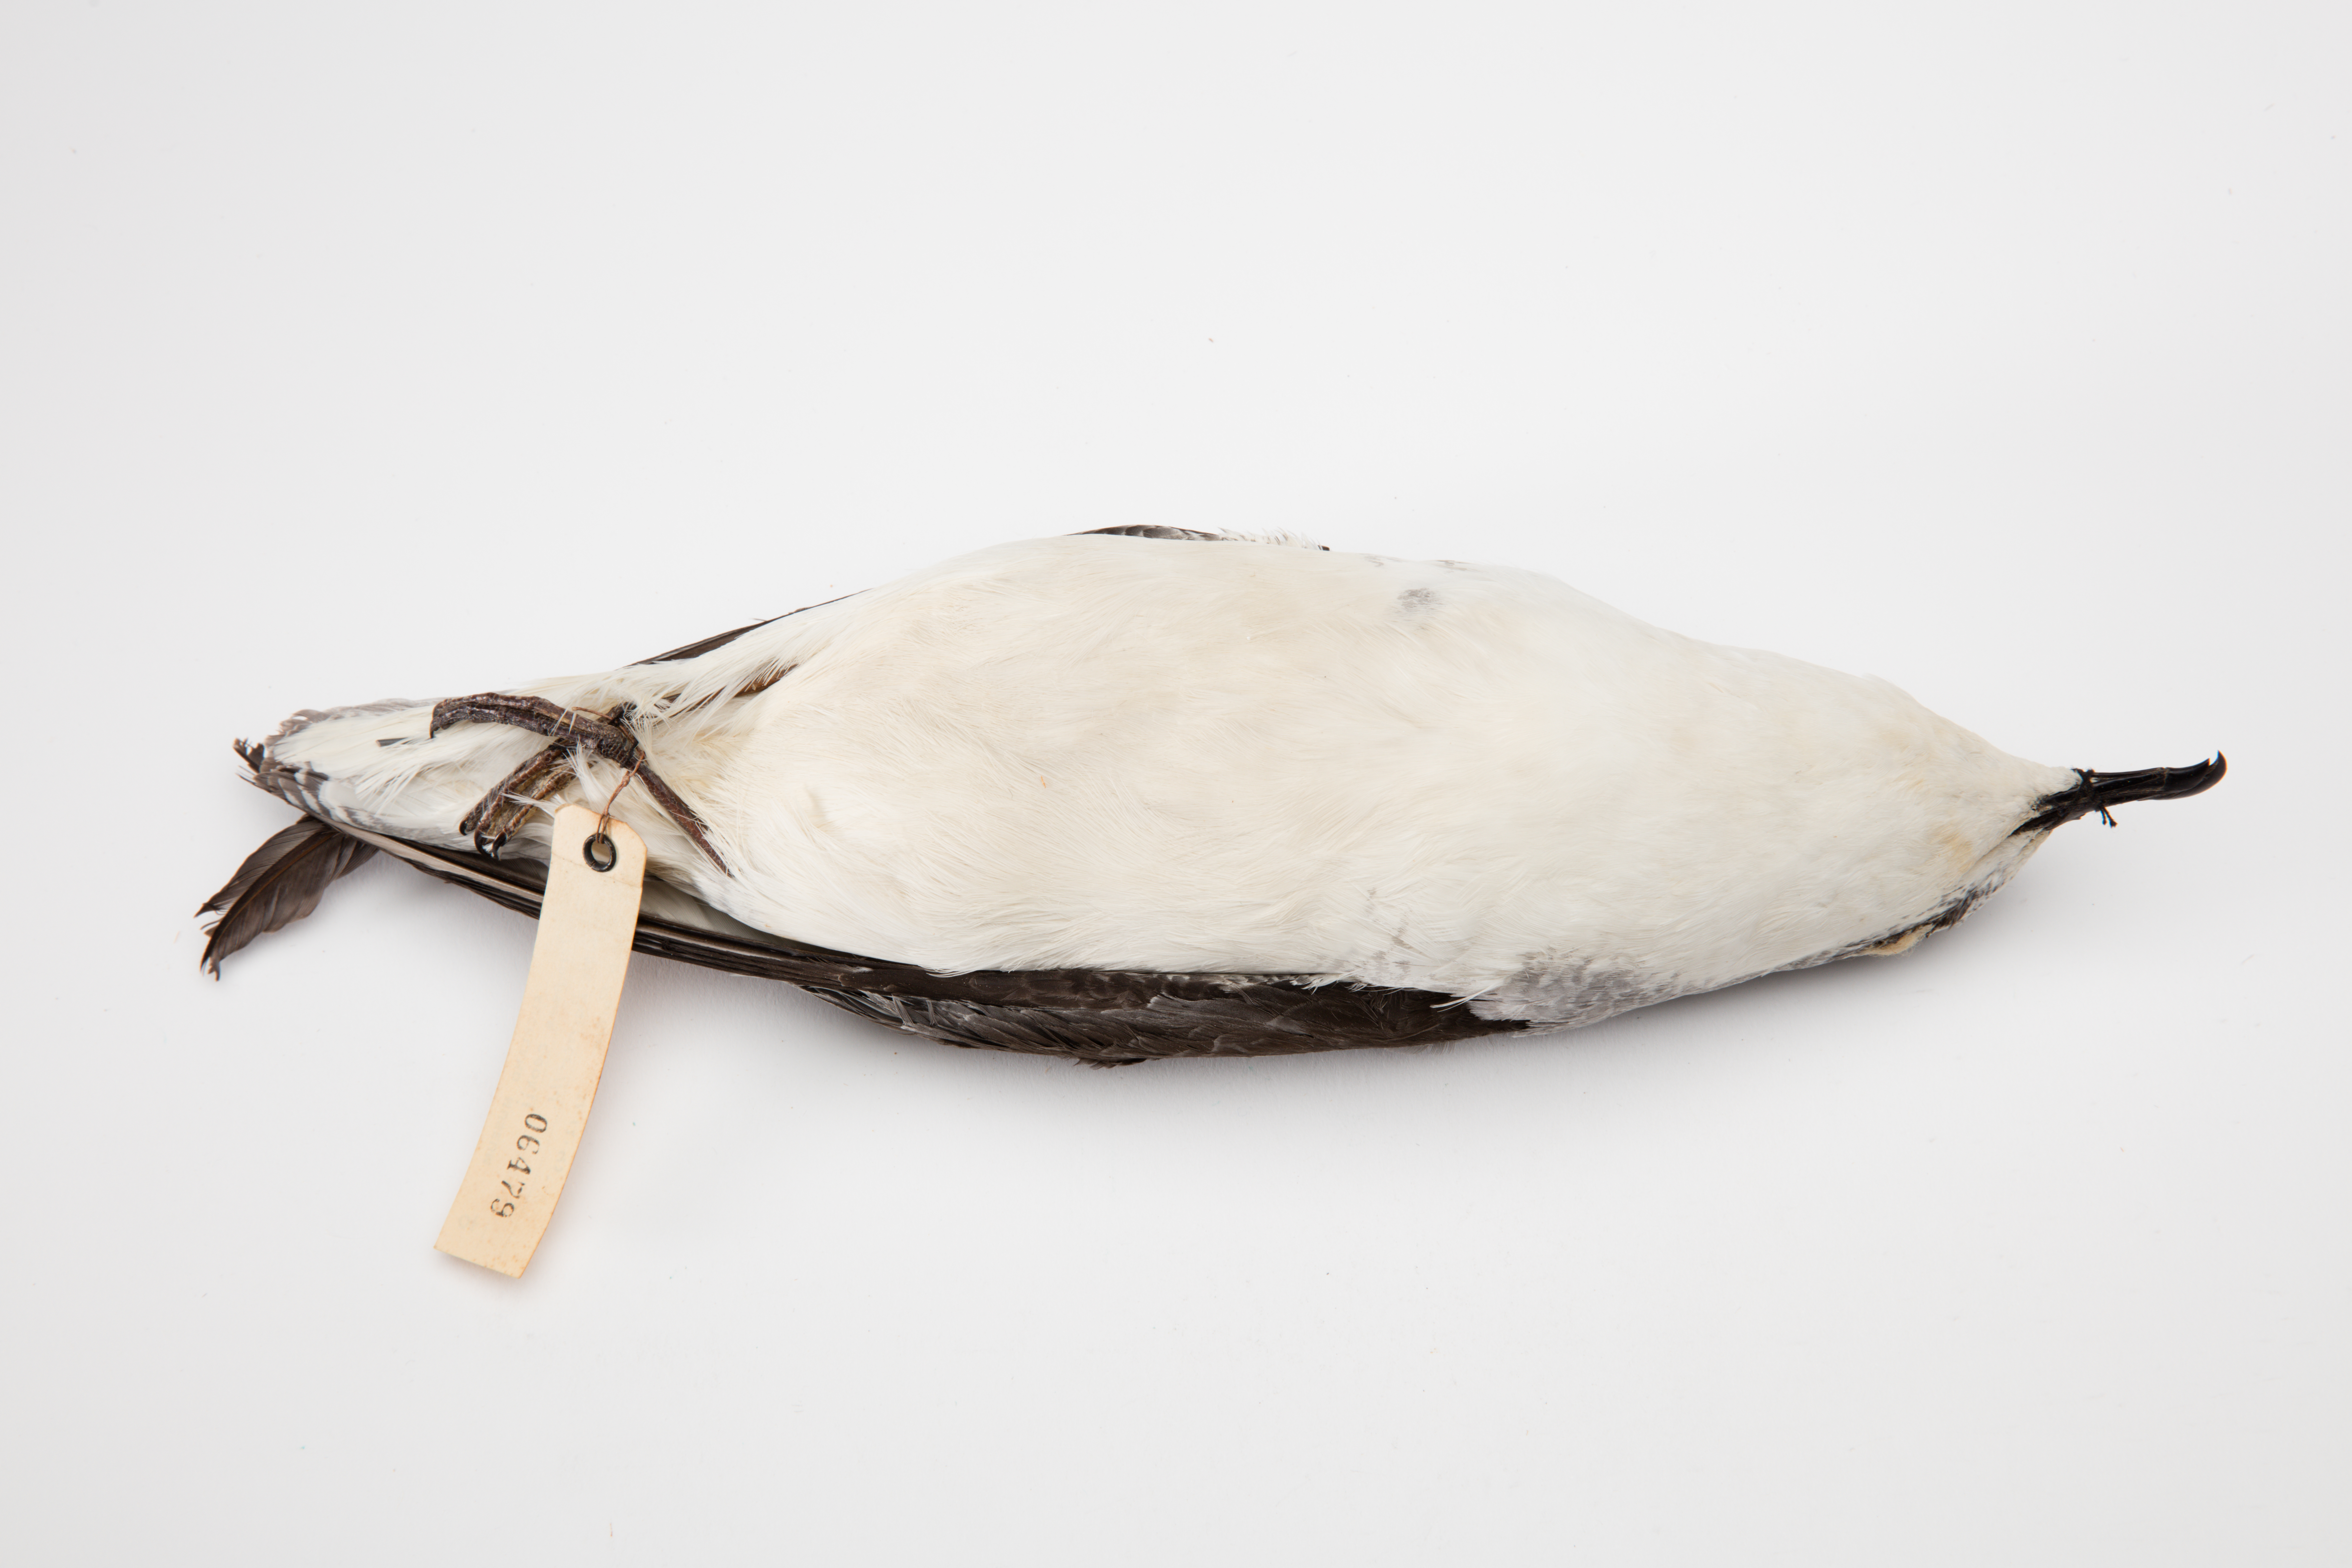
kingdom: Animalia
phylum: Chordata
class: Aves
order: Procellariiformes
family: Procellariidae
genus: Pterodroma
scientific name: Pterodroma cookii
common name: Cook's petrel
